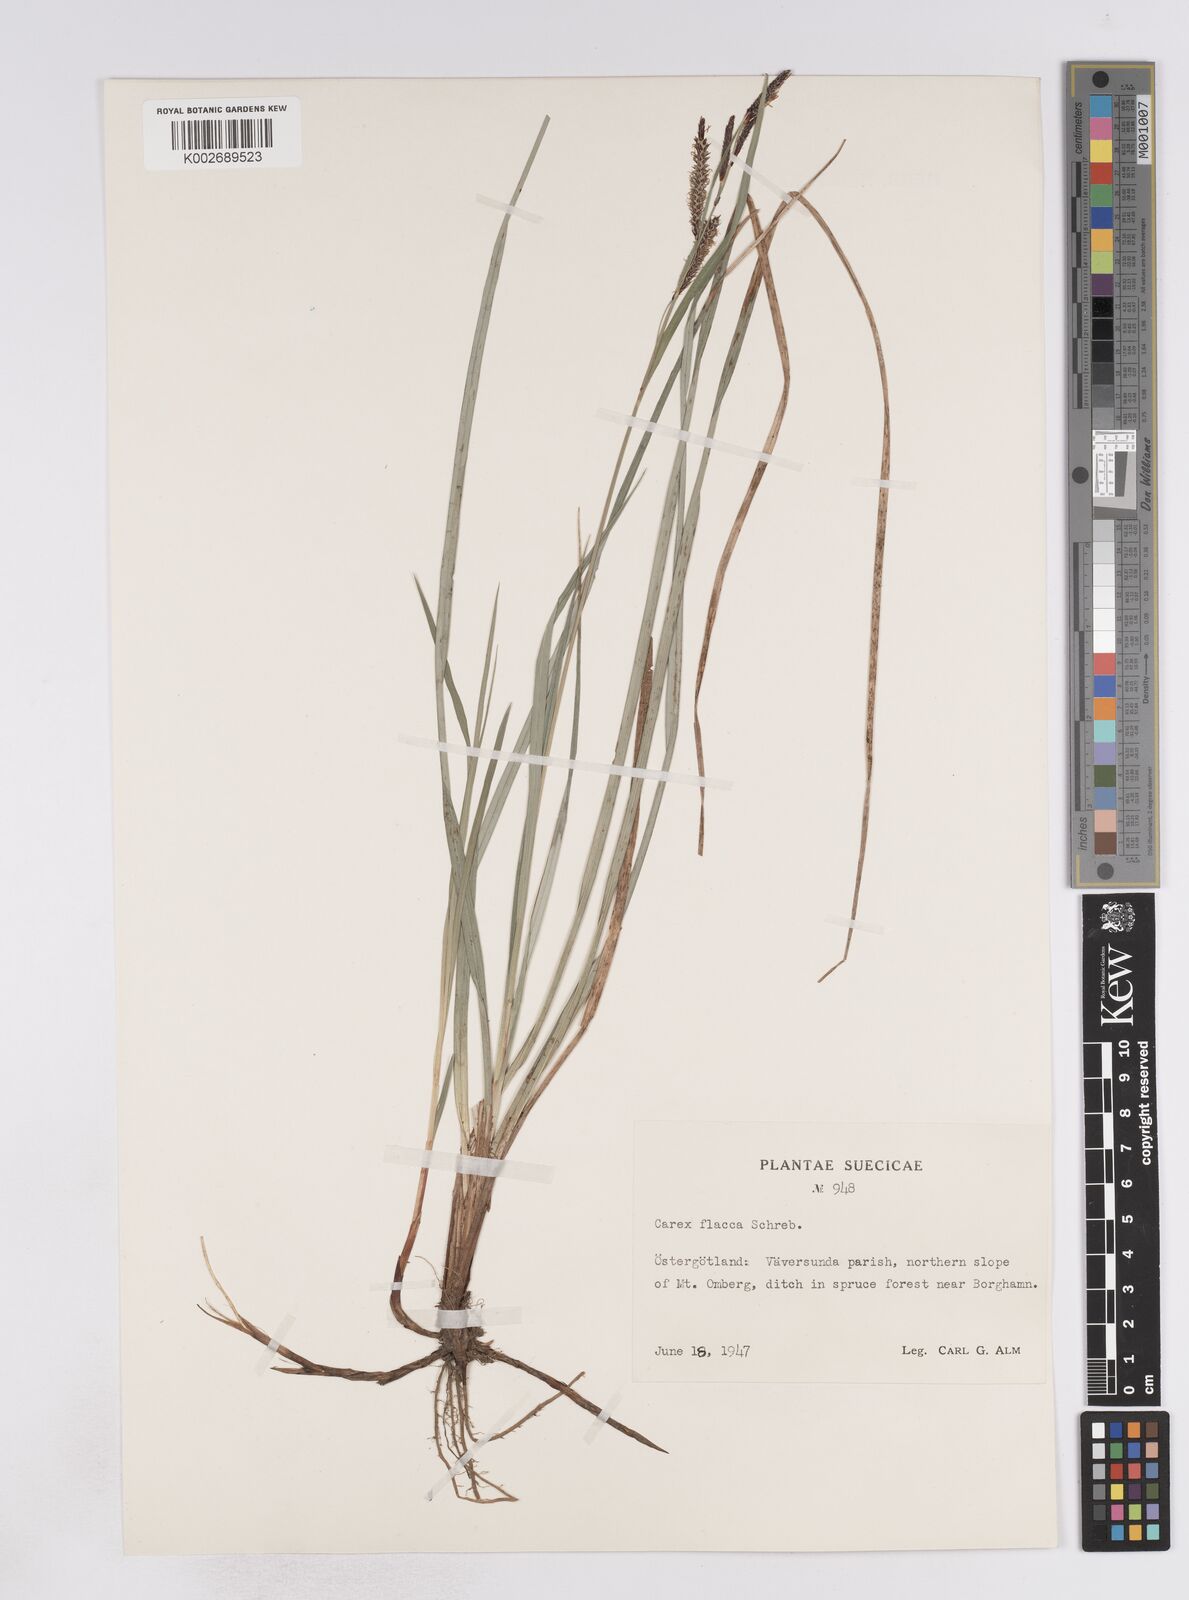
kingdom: Plantae
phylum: Tracheophyta
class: Liliopsida
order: Poales
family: Cyperaceae
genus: Carex
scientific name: Carex flacca
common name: Glaucous sedge
